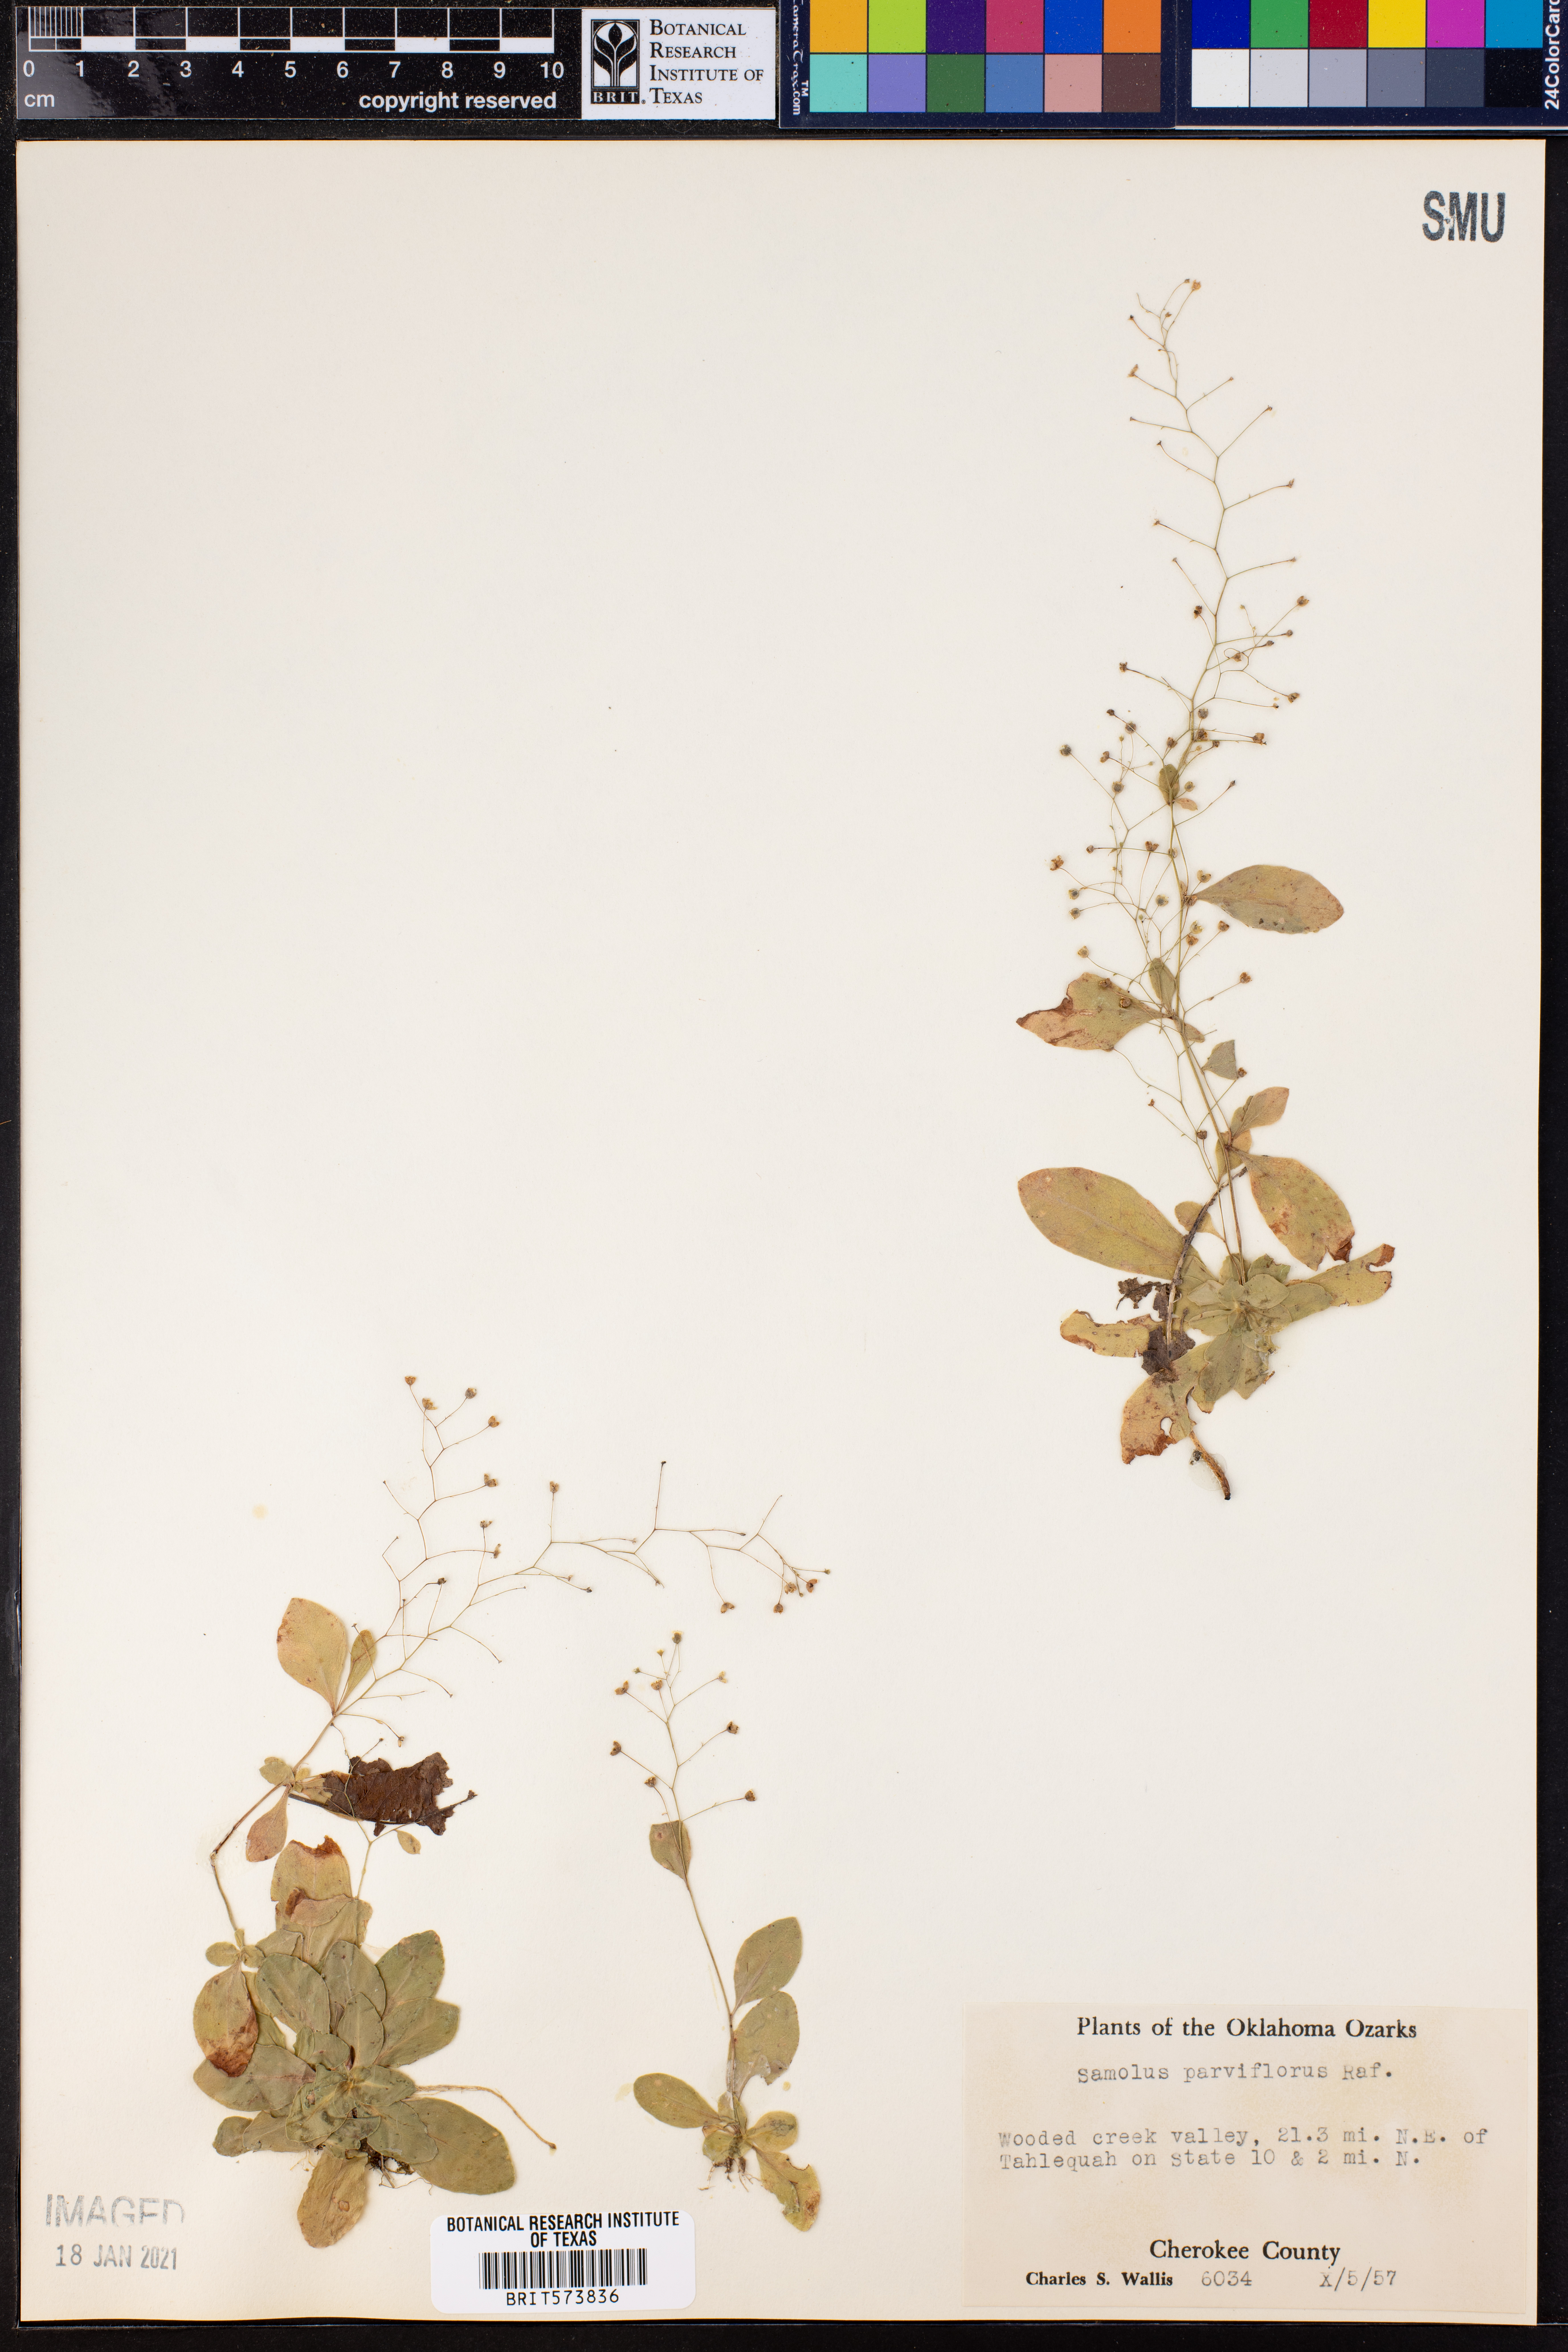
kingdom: Plantae
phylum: Tracheophyta
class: Magnoliopsida
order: Ericales
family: Primulaceae
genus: Samolus
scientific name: Samolus parviflorus
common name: False water pimpernel
